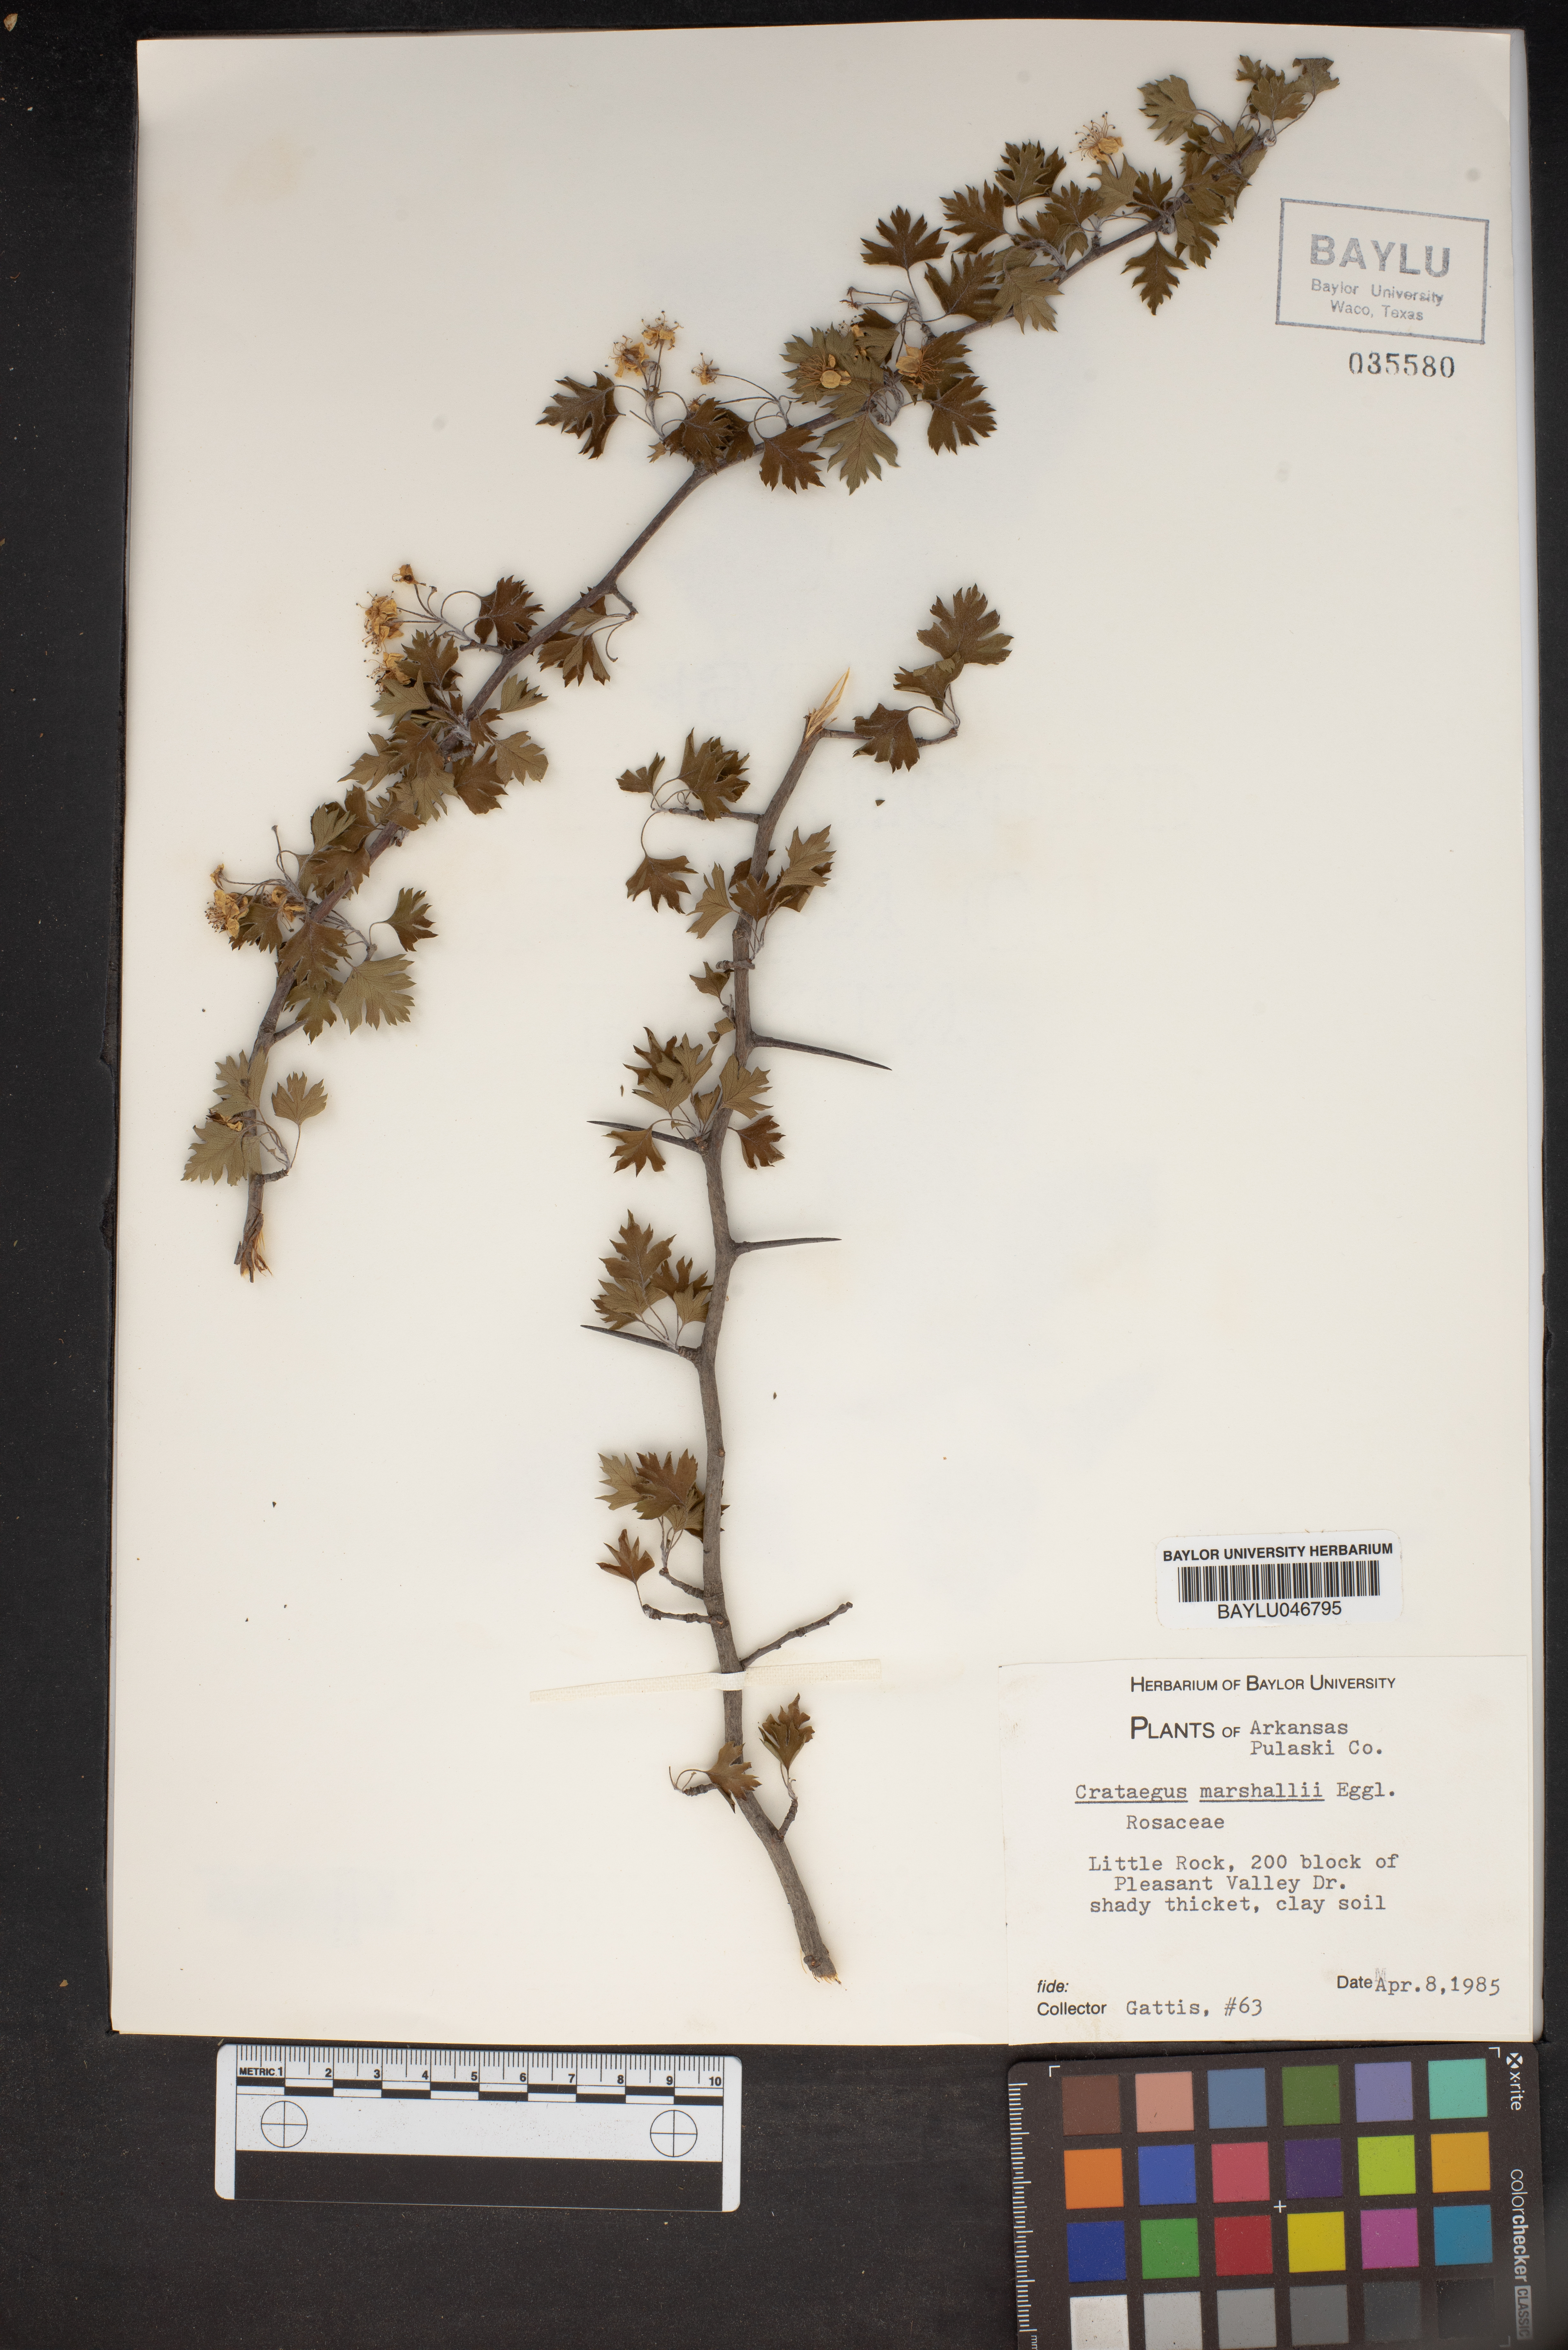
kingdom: Plantae
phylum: Tracheophyta
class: Magnoliopsida
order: Rosales
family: Rosaceae
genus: Crataegus
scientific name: Crataegus marshallii
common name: Parsley-hawthorn
